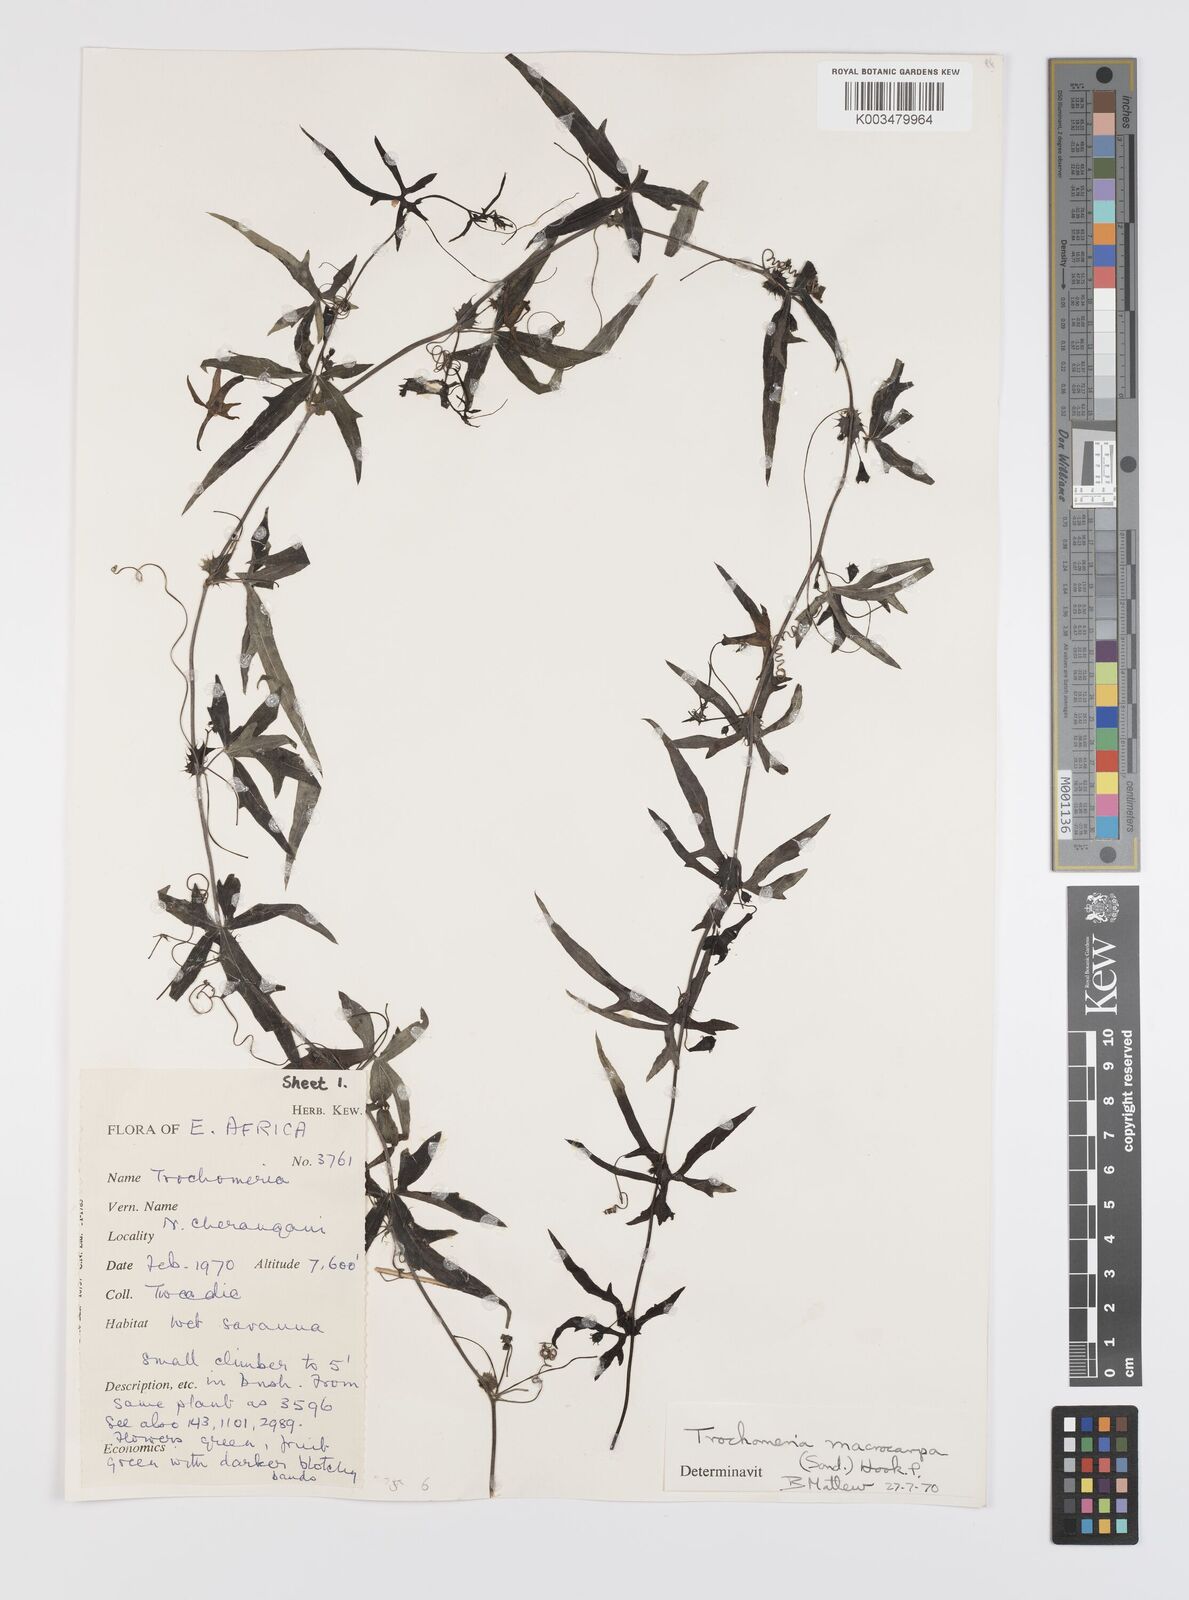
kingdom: Plantae
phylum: Tracheophyta
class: Magnoliopsida
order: Cucurbitales
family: Cucurbitaceae
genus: Trochomeria
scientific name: Trochomeria macrocarpa
